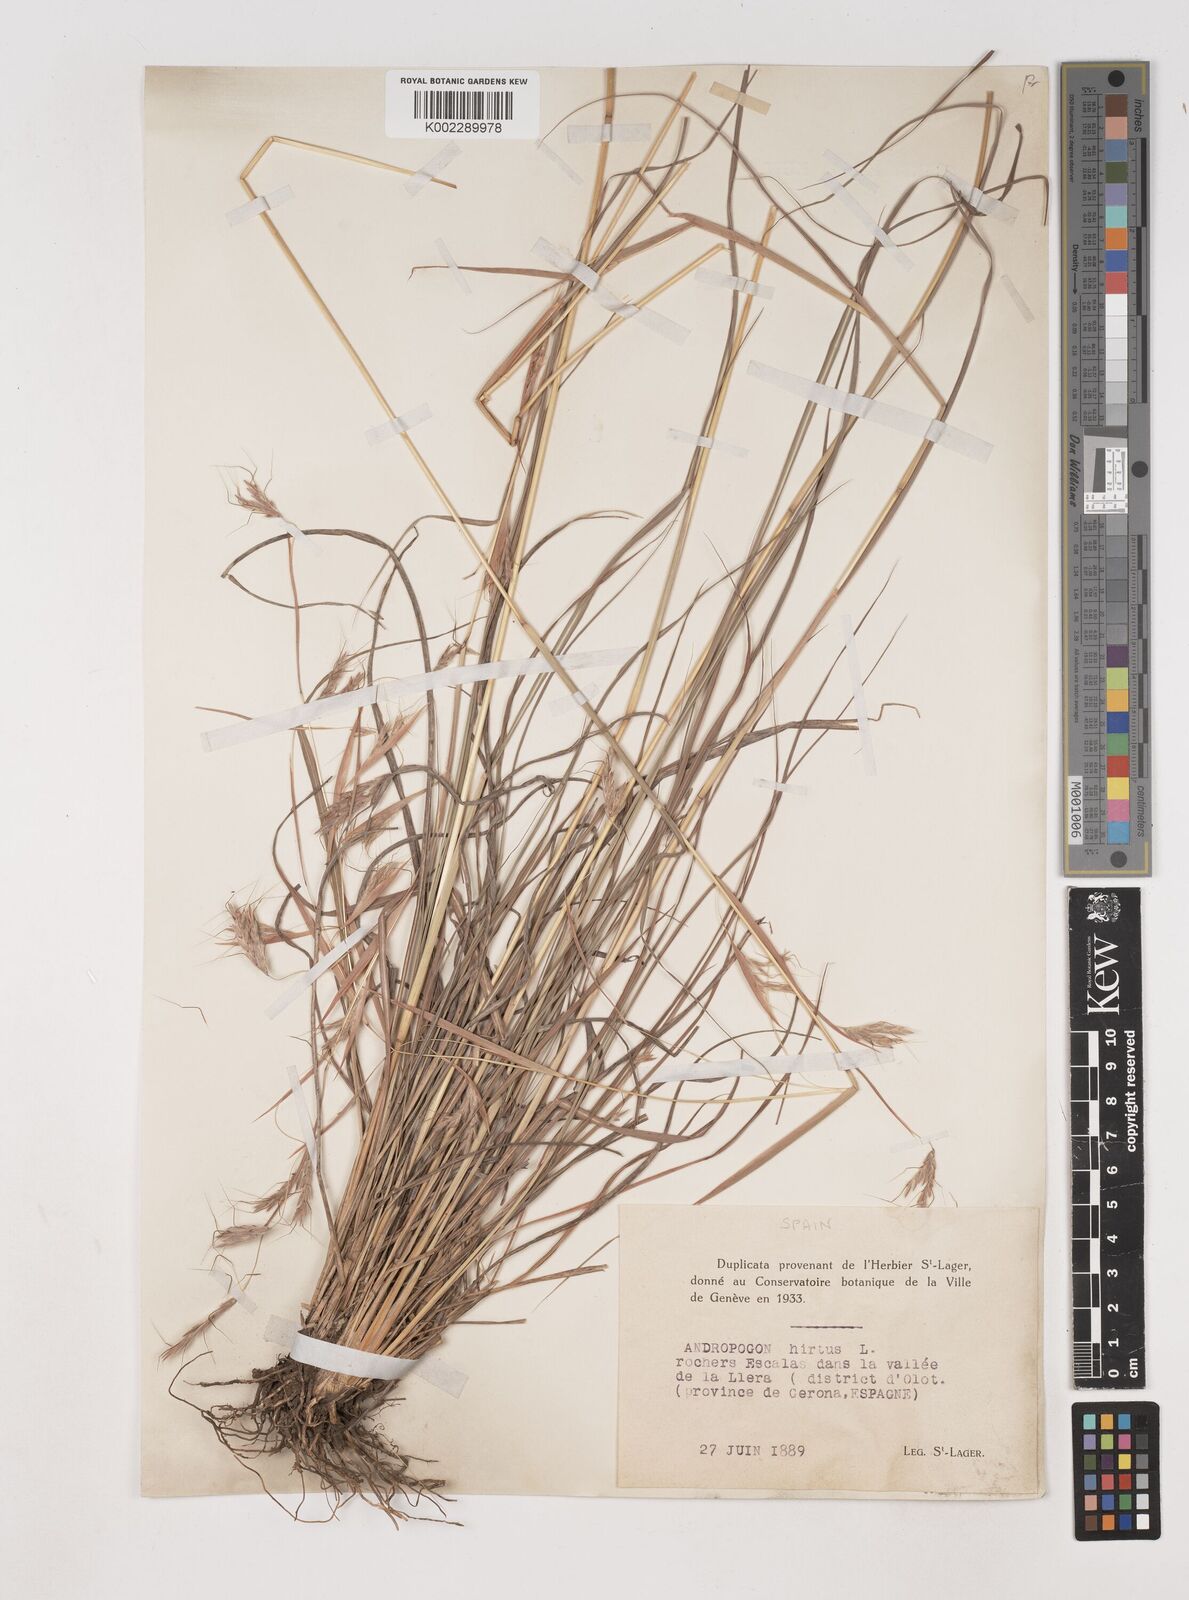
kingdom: Plantae
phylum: Tracheophyta
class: Liliopsida
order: Poales
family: Poaceae
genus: Hyparrhenia
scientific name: Hyparrhenia hirta
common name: Thatching grass
